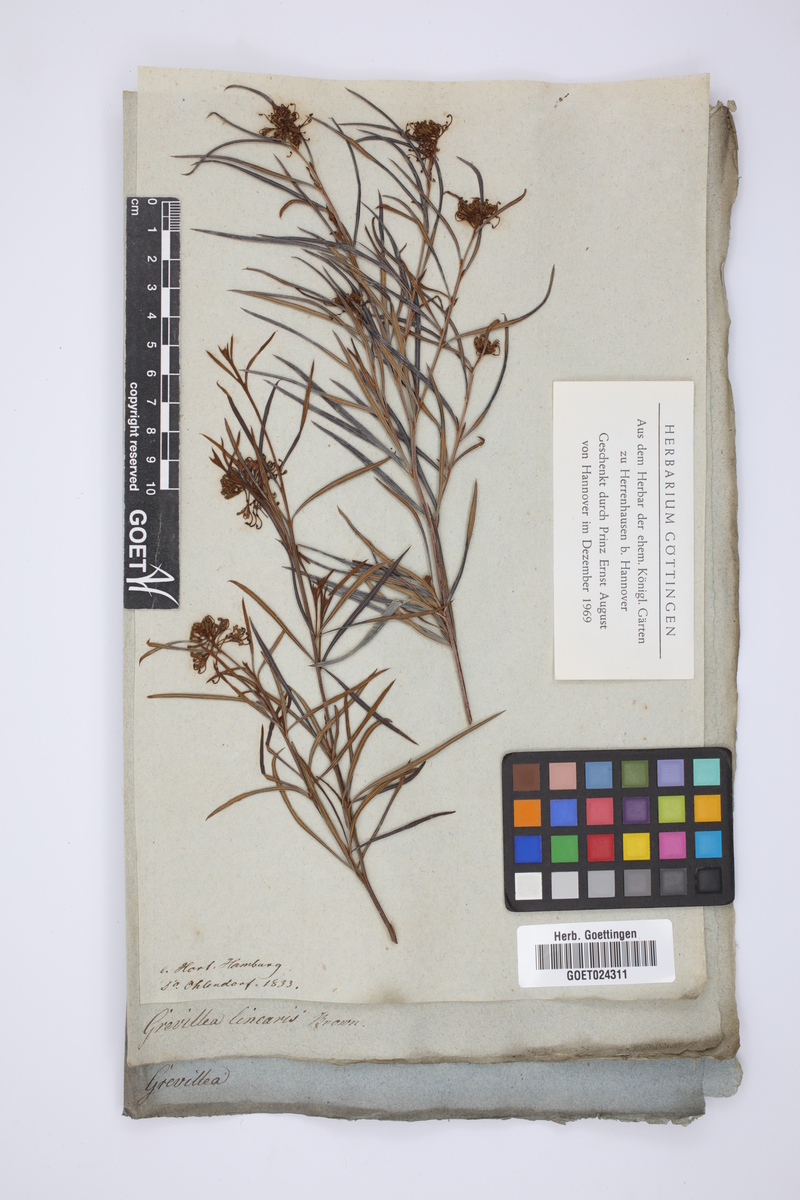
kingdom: Plantae
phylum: Tracheophyta
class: Magnoliopsida
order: Proteales
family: Proteaceae
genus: Grevillea
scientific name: Grevillea linearifolia
